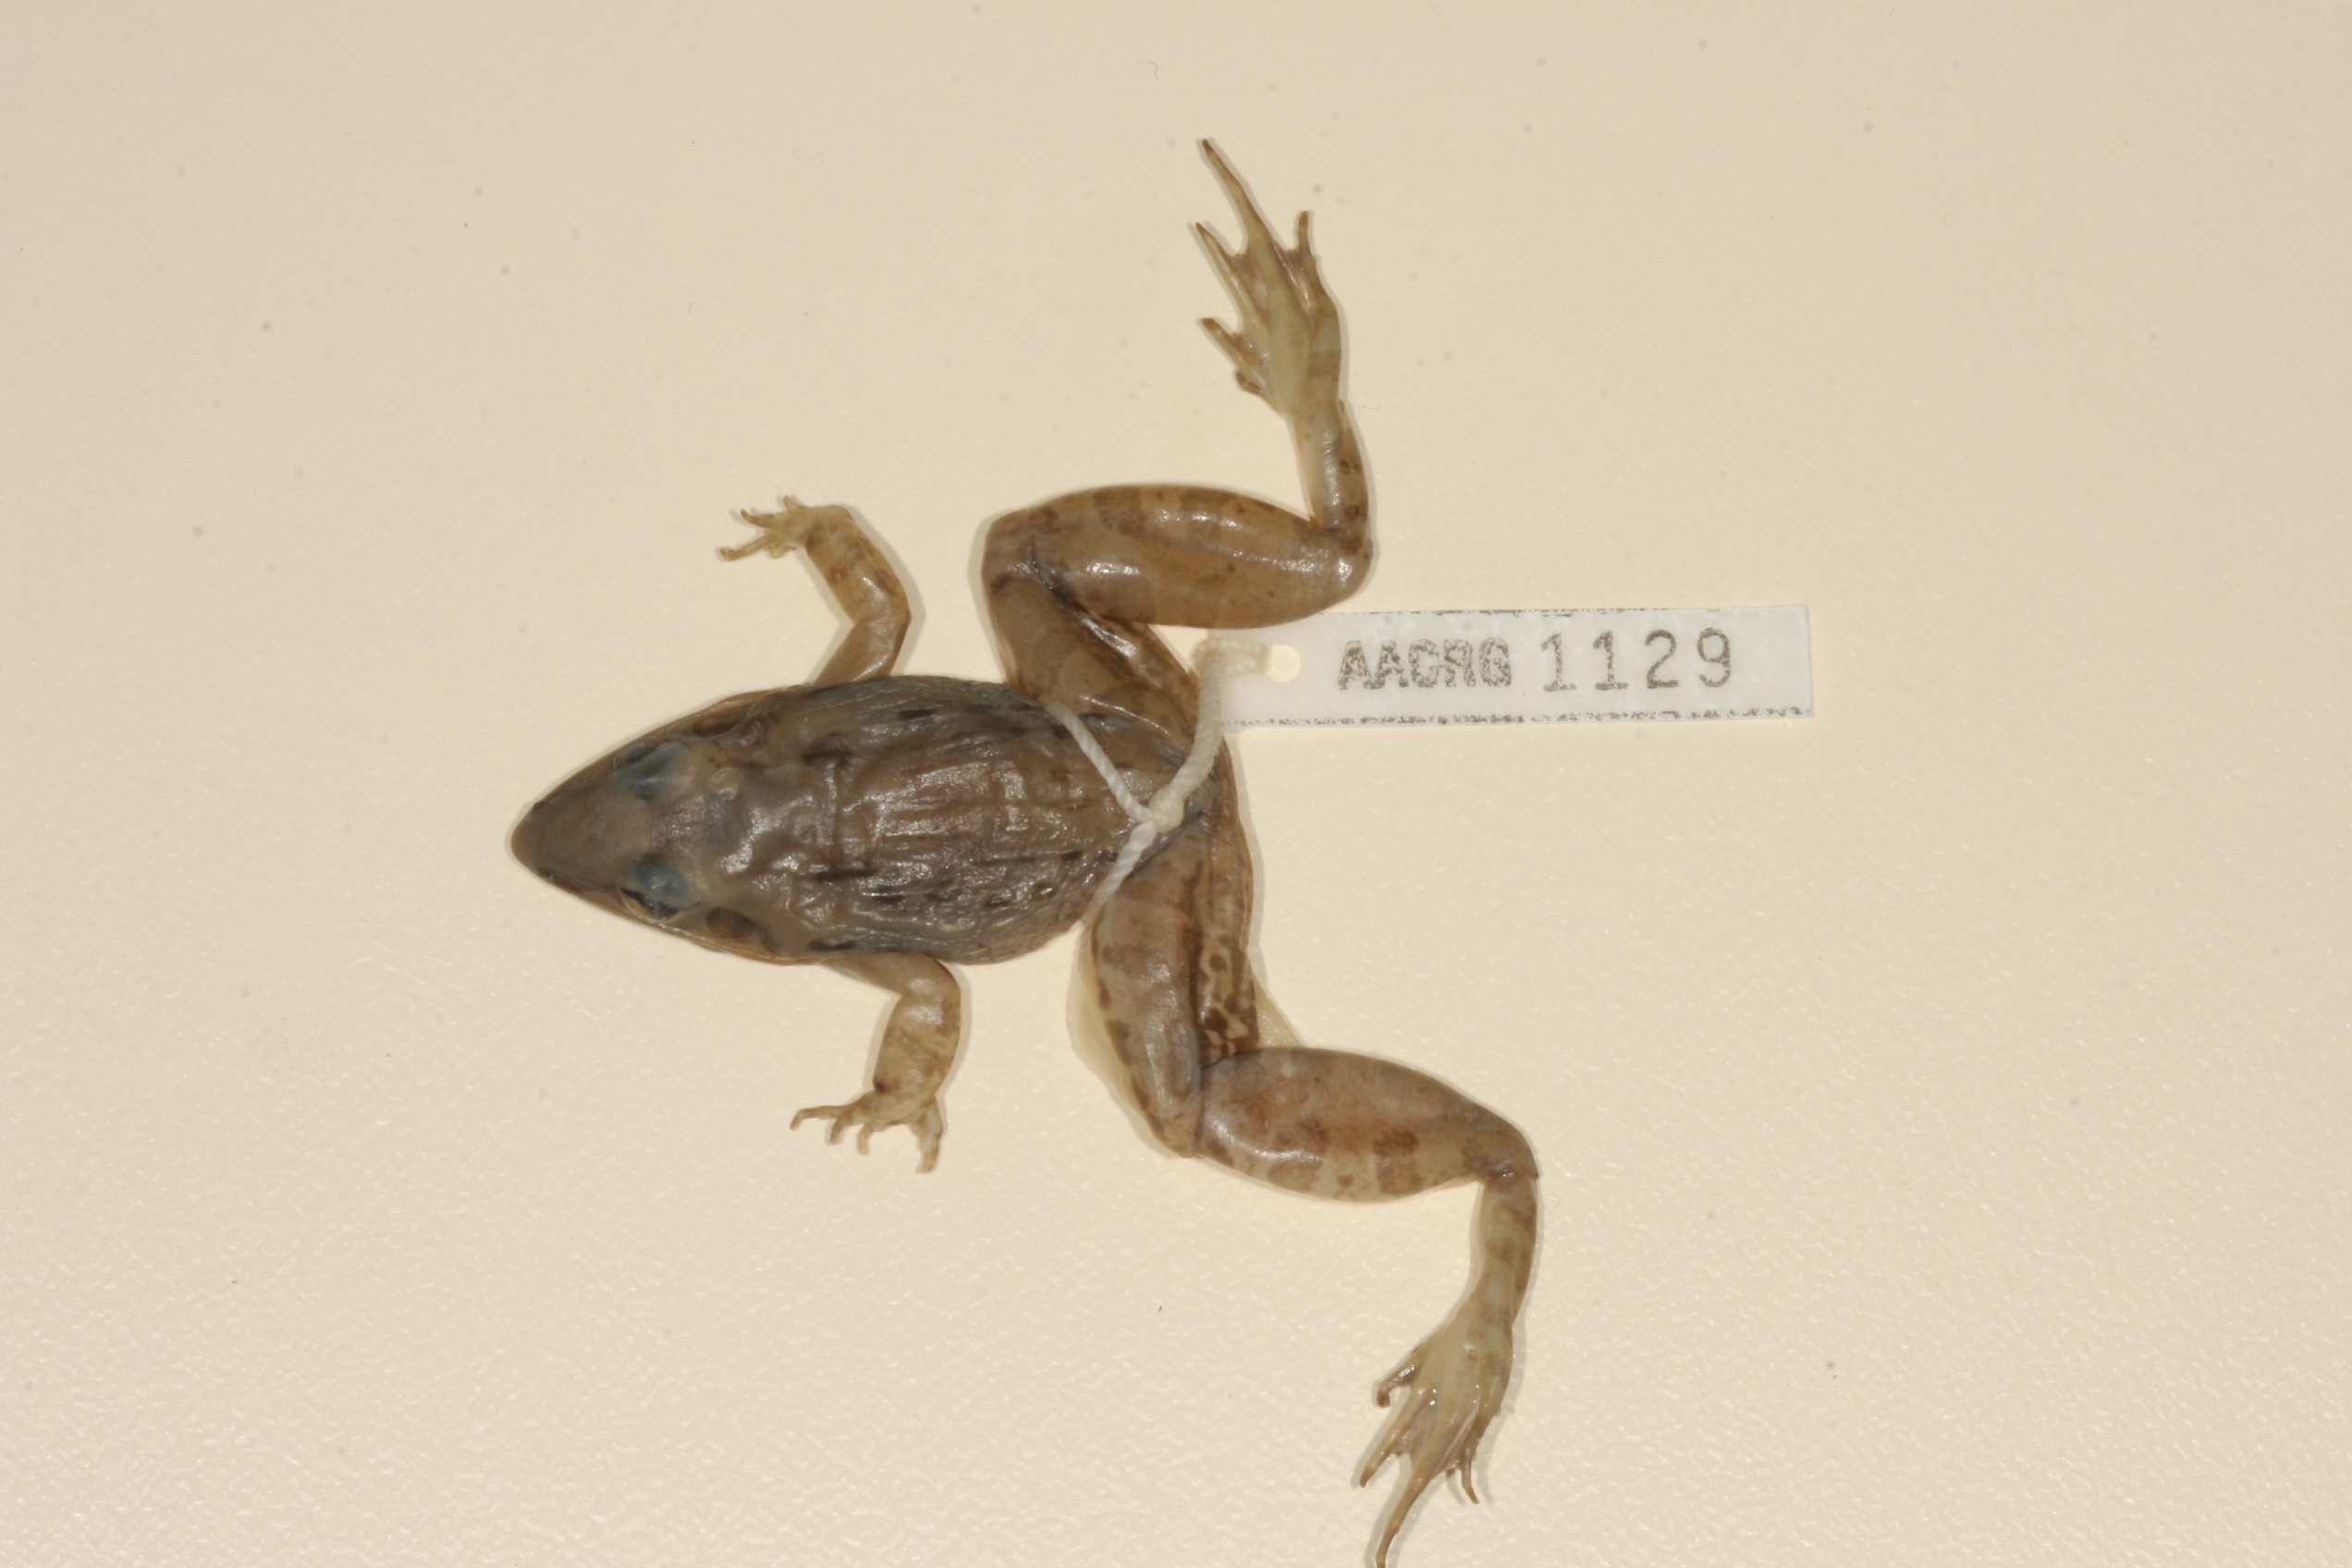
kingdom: Animalia
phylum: Chordata
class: Amphibia
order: Anura
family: Ptychadenidae
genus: Ptychadena
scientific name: Ptychadena anchietae
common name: Anchieta's ridged frog
